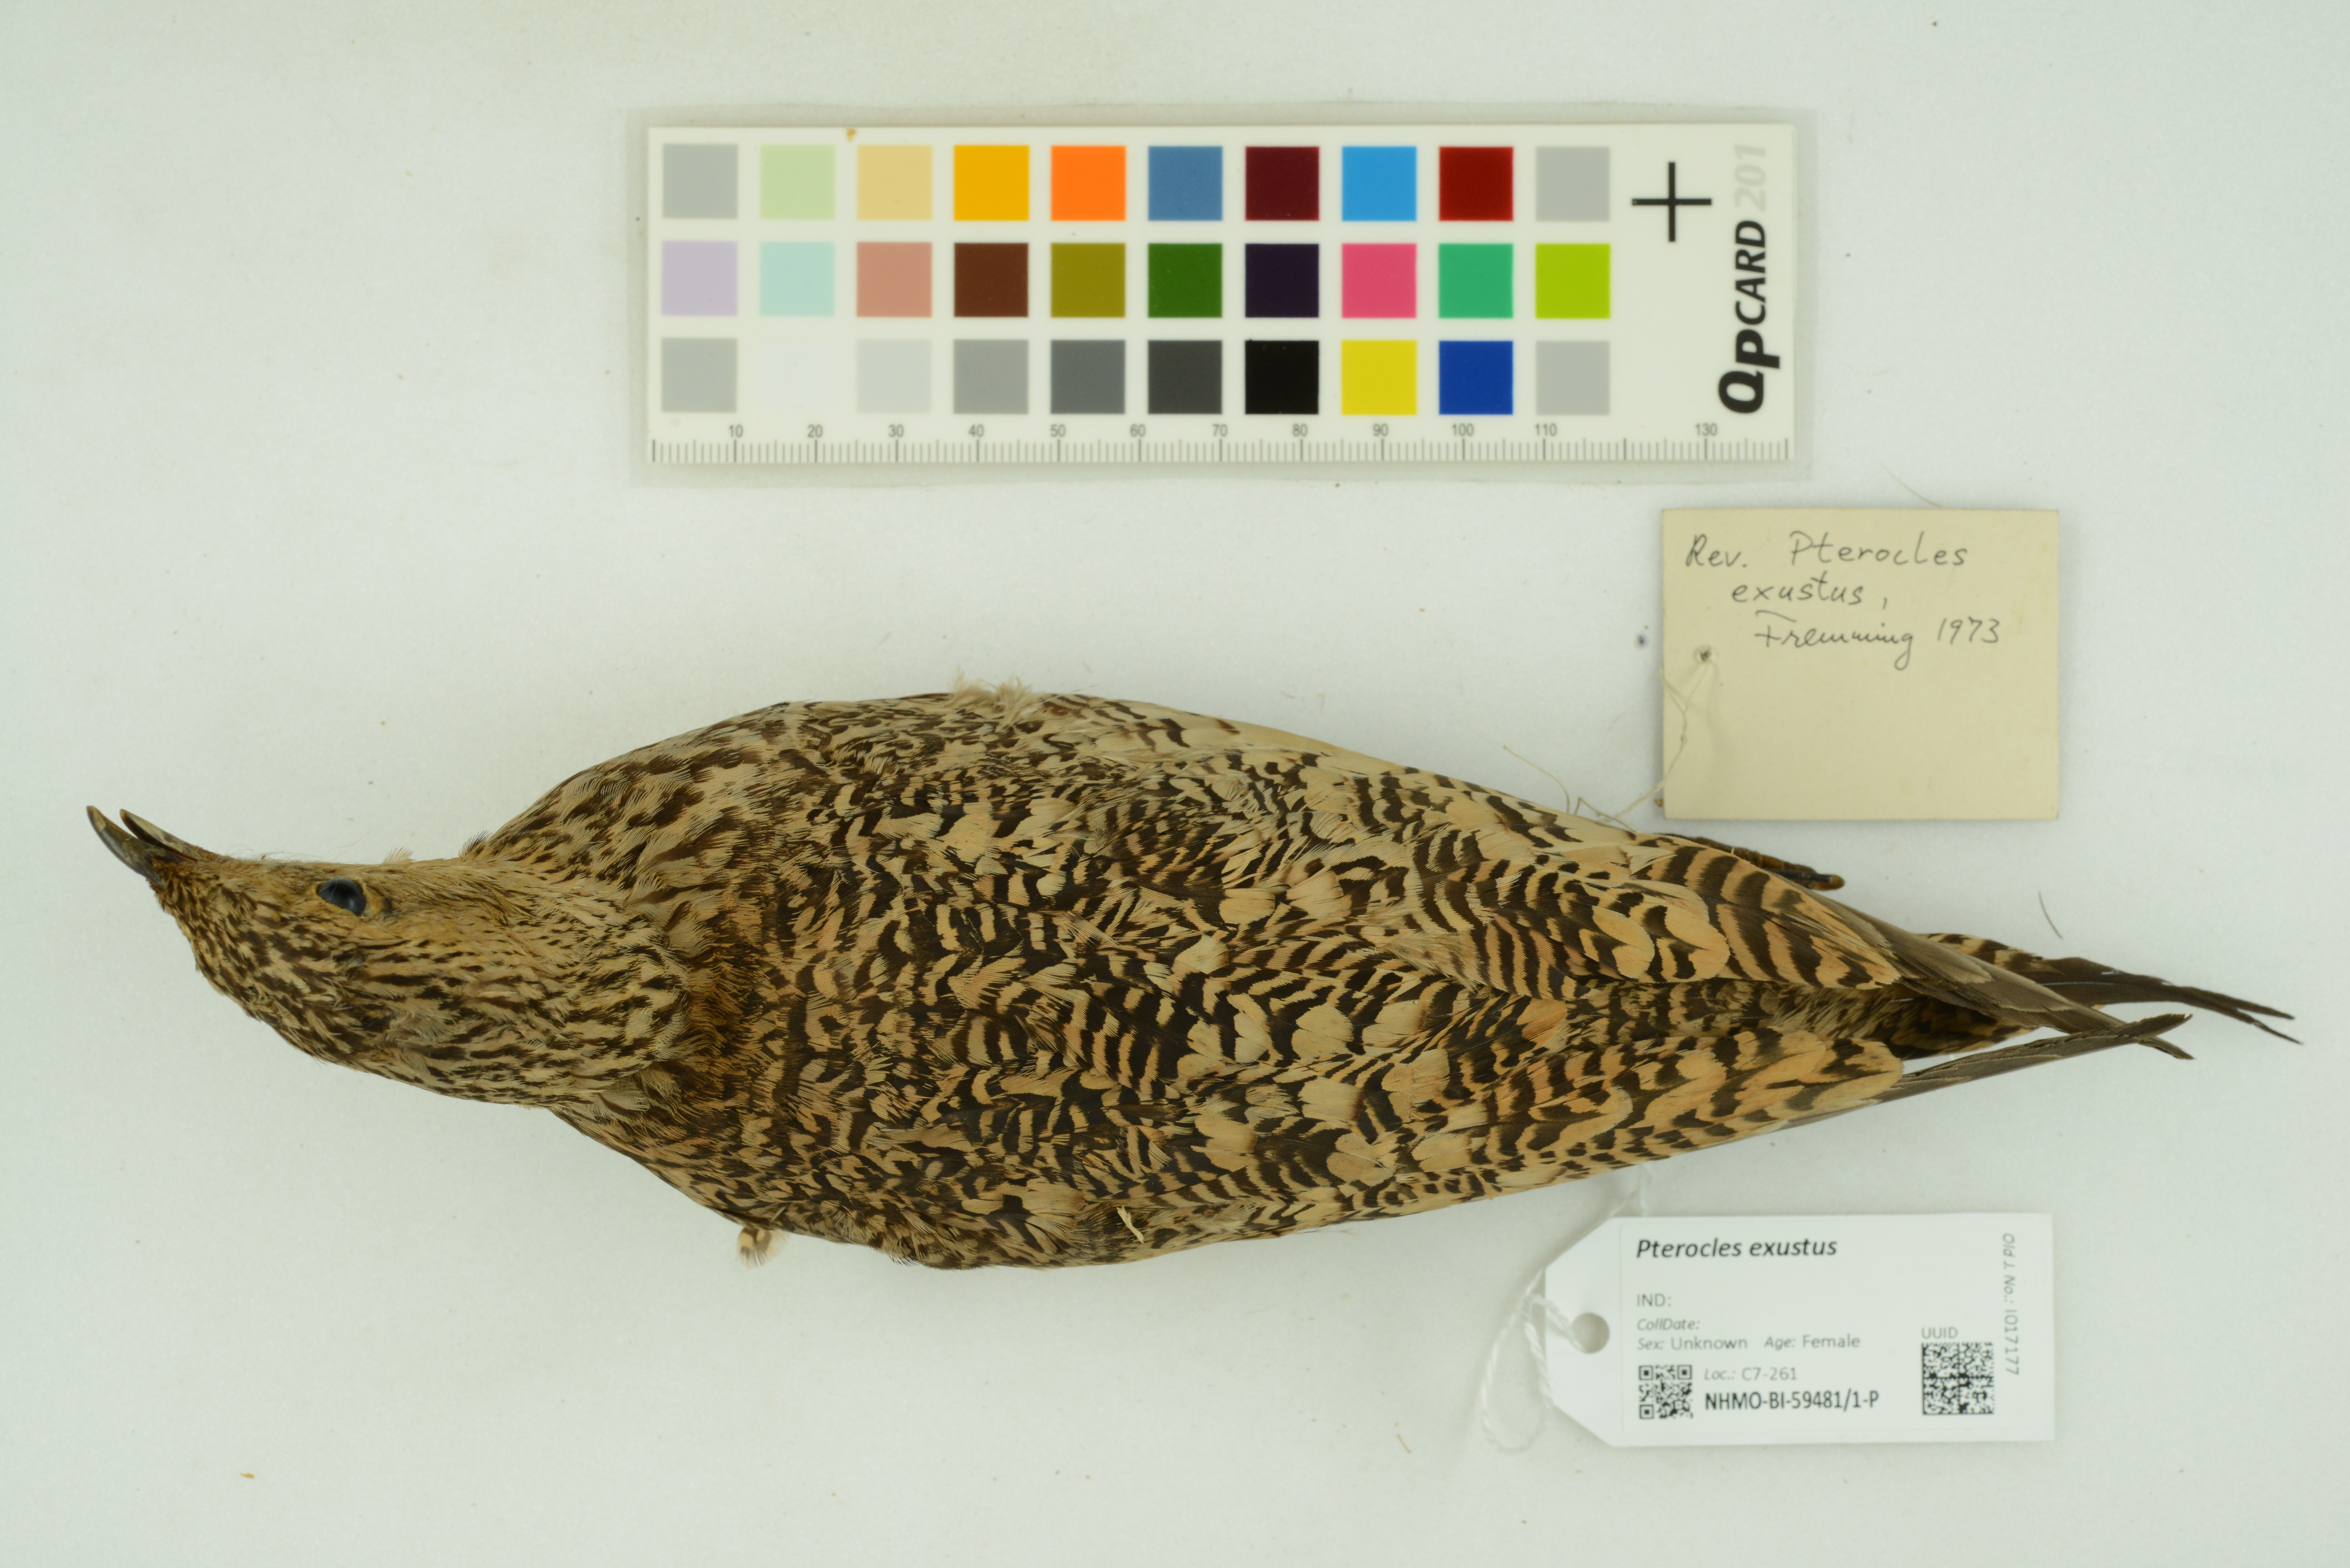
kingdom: Animalia
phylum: Chordata
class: Aves
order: Pteroclidiformes
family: Pteroclididae
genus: Pterocles
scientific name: Pterocles exustus
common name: Chestnut-bellied sandgrouse
